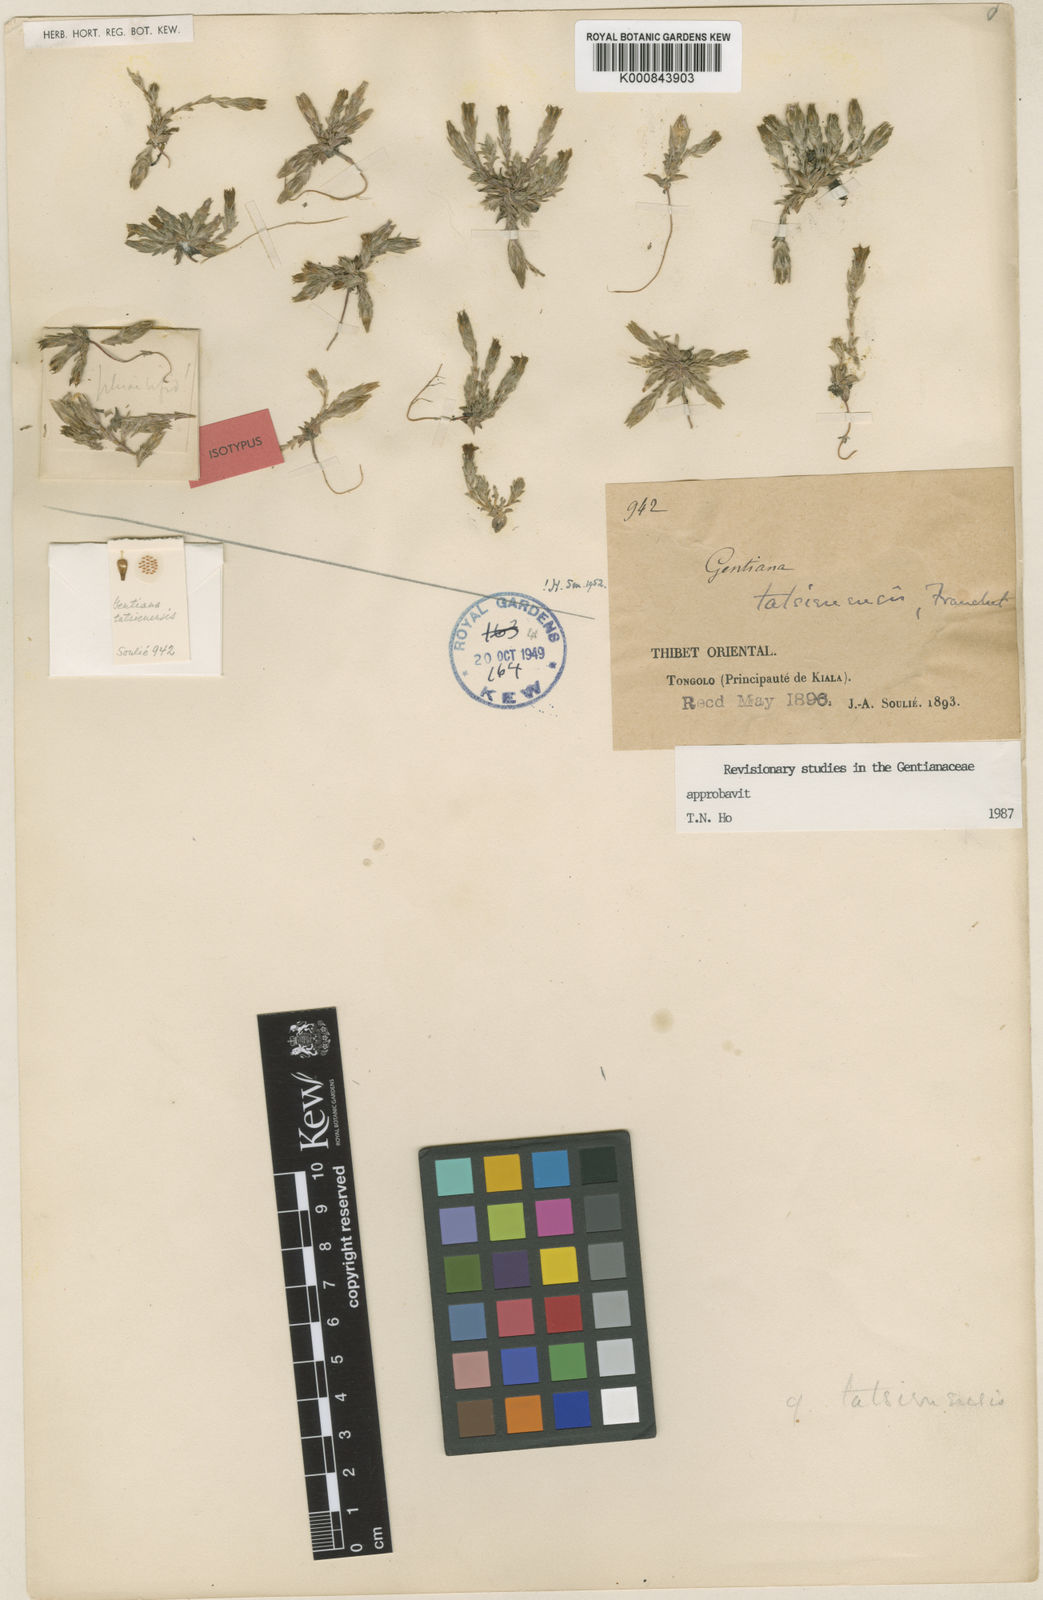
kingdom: Plantae
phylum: Tracheophyta
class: Magnoliopsida
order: Gentianales
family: Gentianaceae
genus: Gentiana
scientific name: Gentiana tatsienensis
